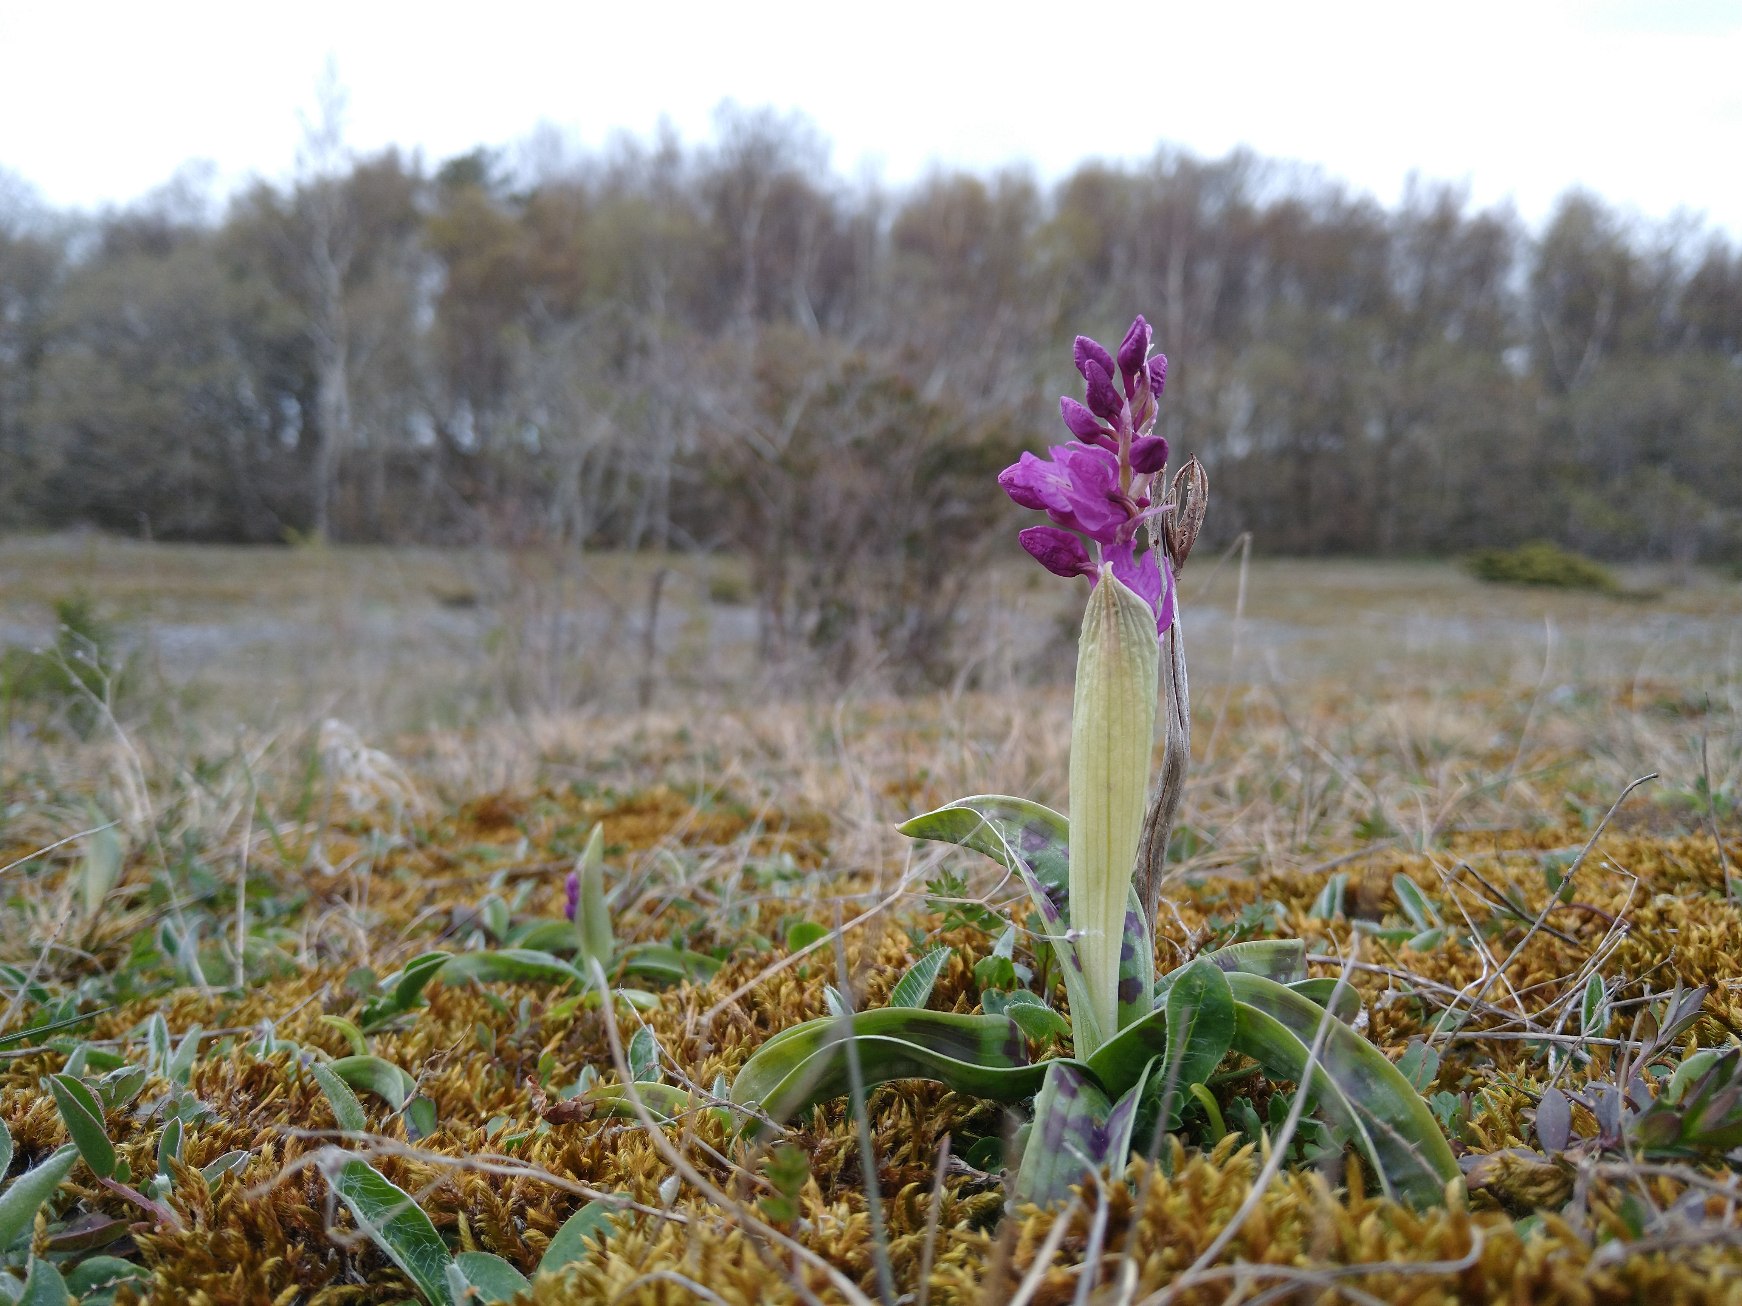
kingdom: Plantae
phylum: Tracheophyta
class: Liliopsida
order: Asparagales
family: Orchidaceae
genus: Orchis
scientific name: Orchis mascula
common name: Tyndakset gøgeurt
